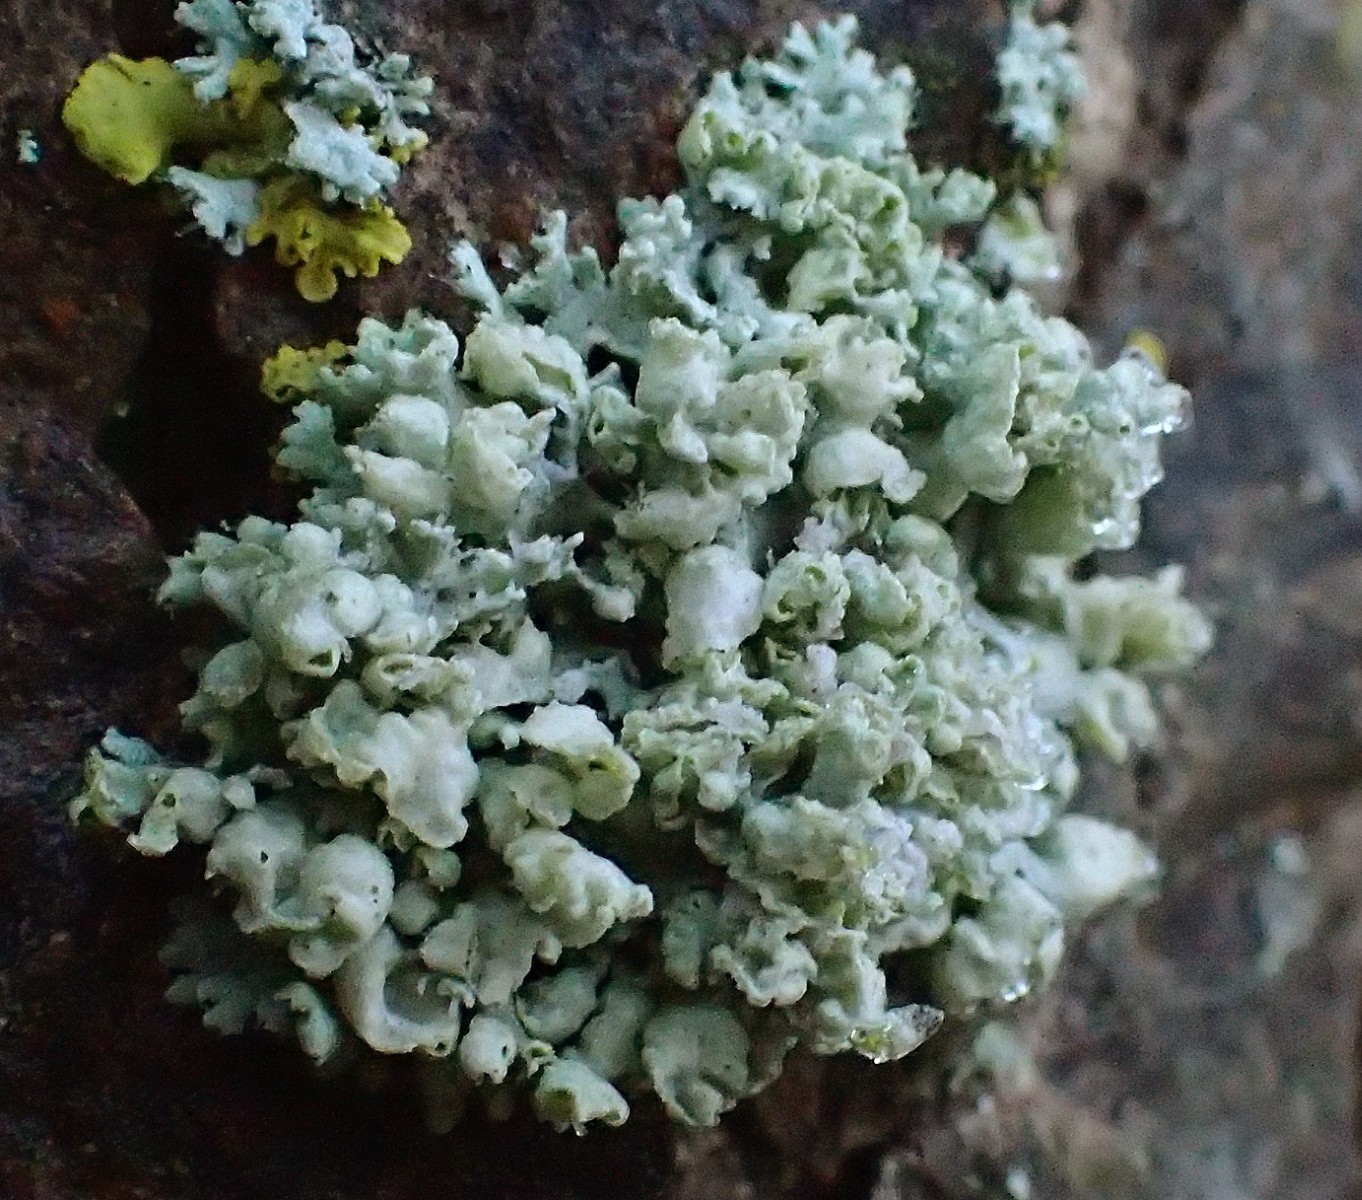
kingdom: Fungi
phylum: Ascomycota
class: Lecanoromycetes
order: Caliciales
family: Physciaceae
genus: Physcia
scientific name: Physcia adscendens
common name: hætte-rosetlav
